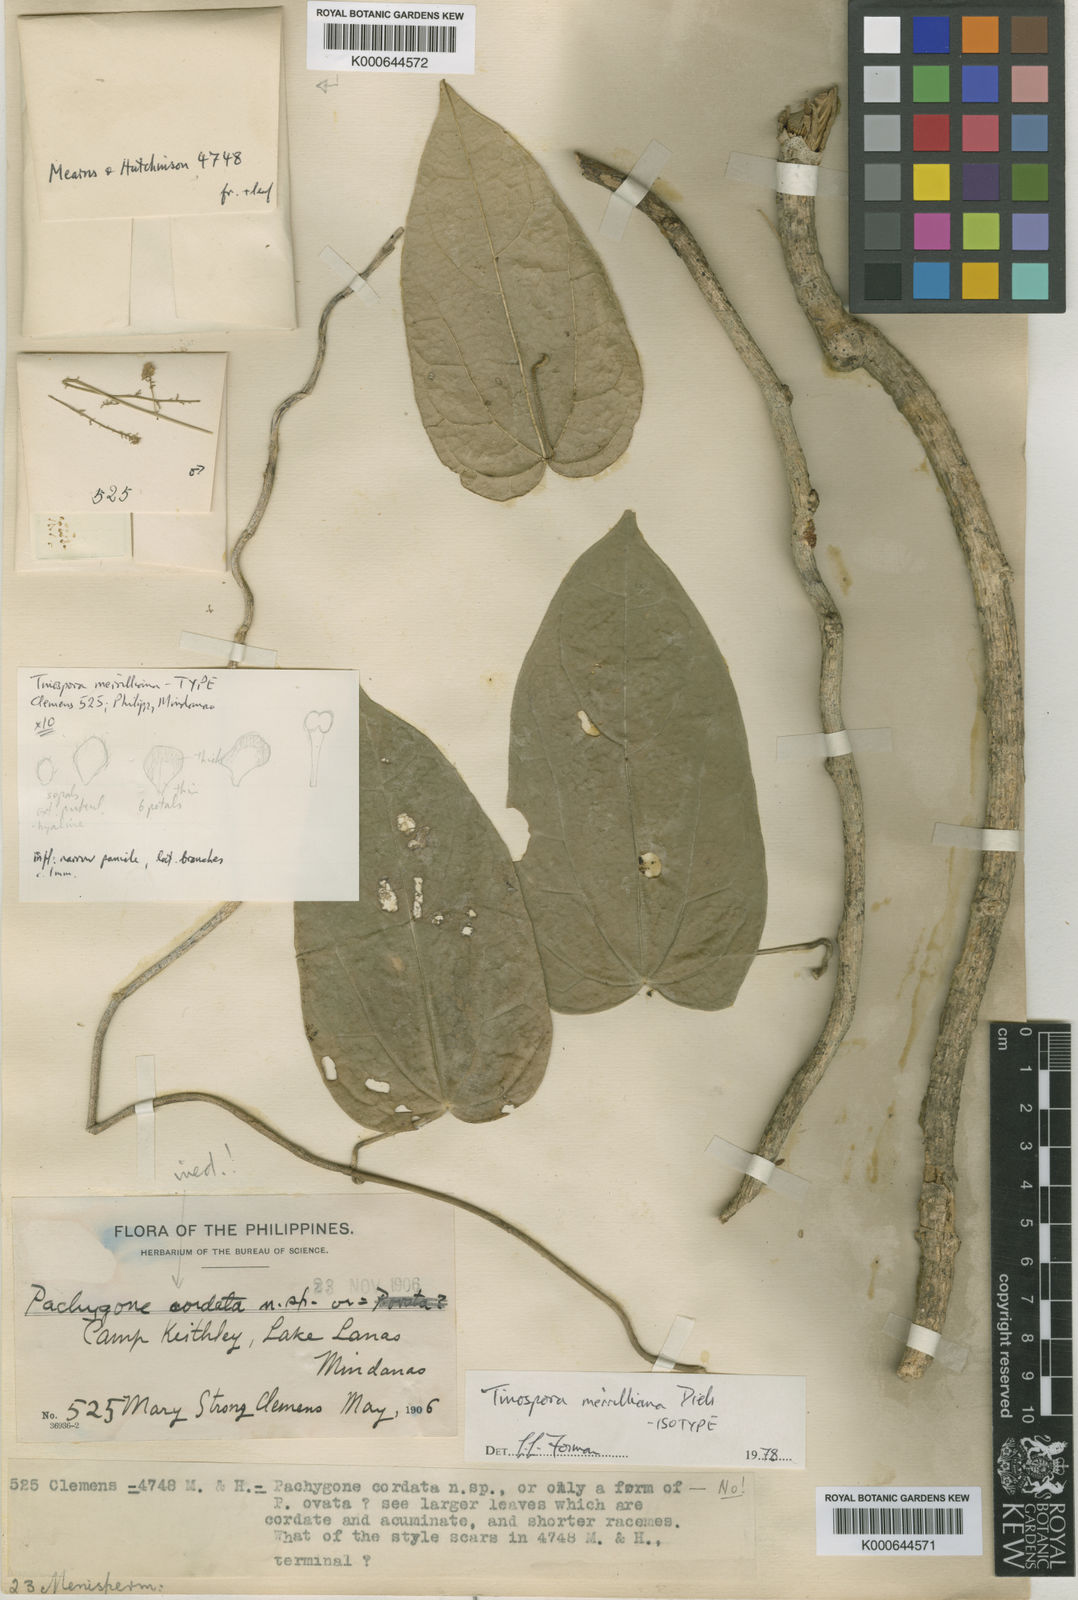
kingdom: Plantae
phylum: Tracheophyta
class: Magnoliopsida
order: Ranunculales
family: Menispermaceae
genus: Tinospora
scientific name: Tinospora merrilliana
